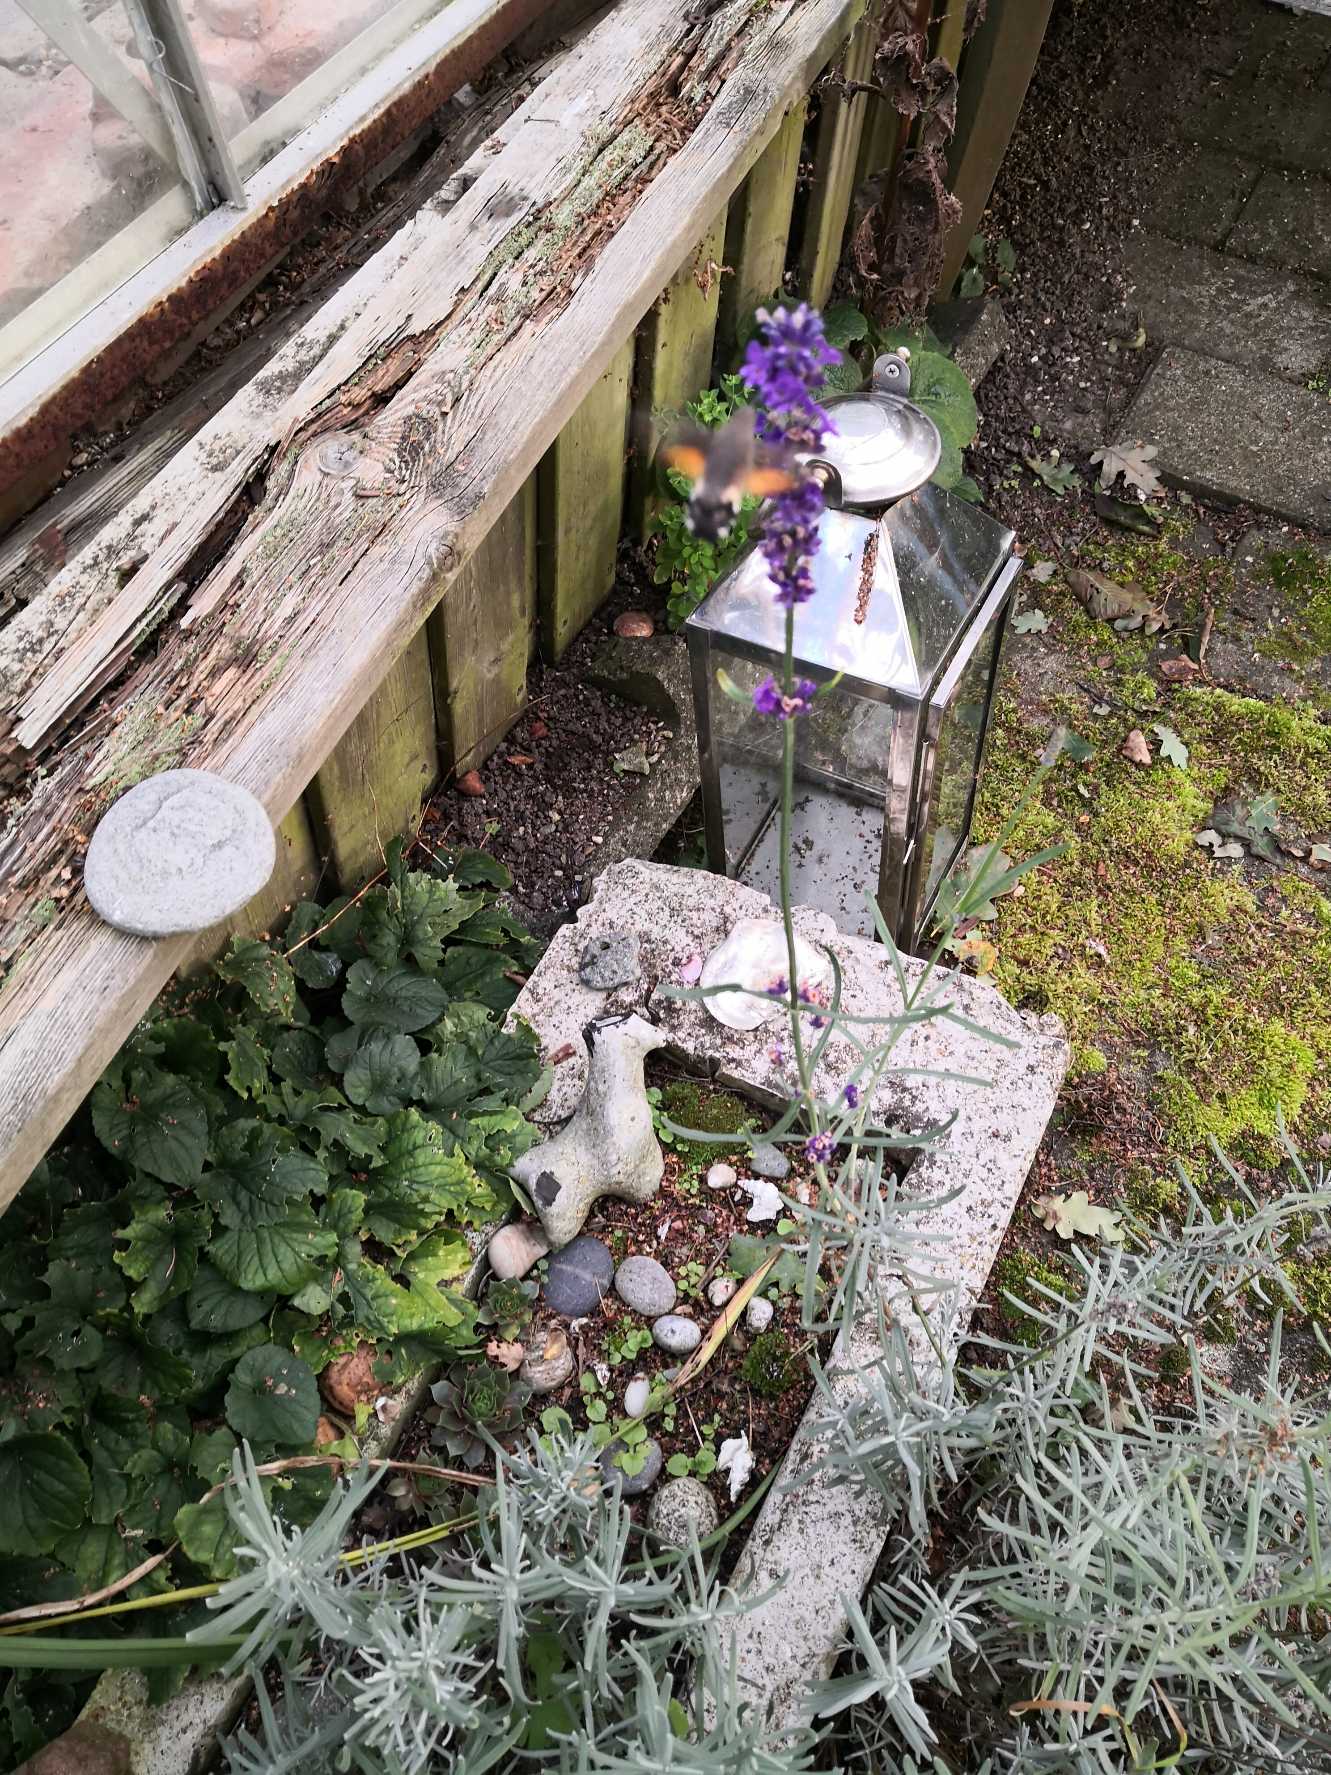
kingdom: Animalia
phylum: Arthropoda
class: Insecta
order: Lepidoptera
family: Sphingidae
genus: Macroglossum
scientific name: Macroglossum stellatarum
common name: Duehale
